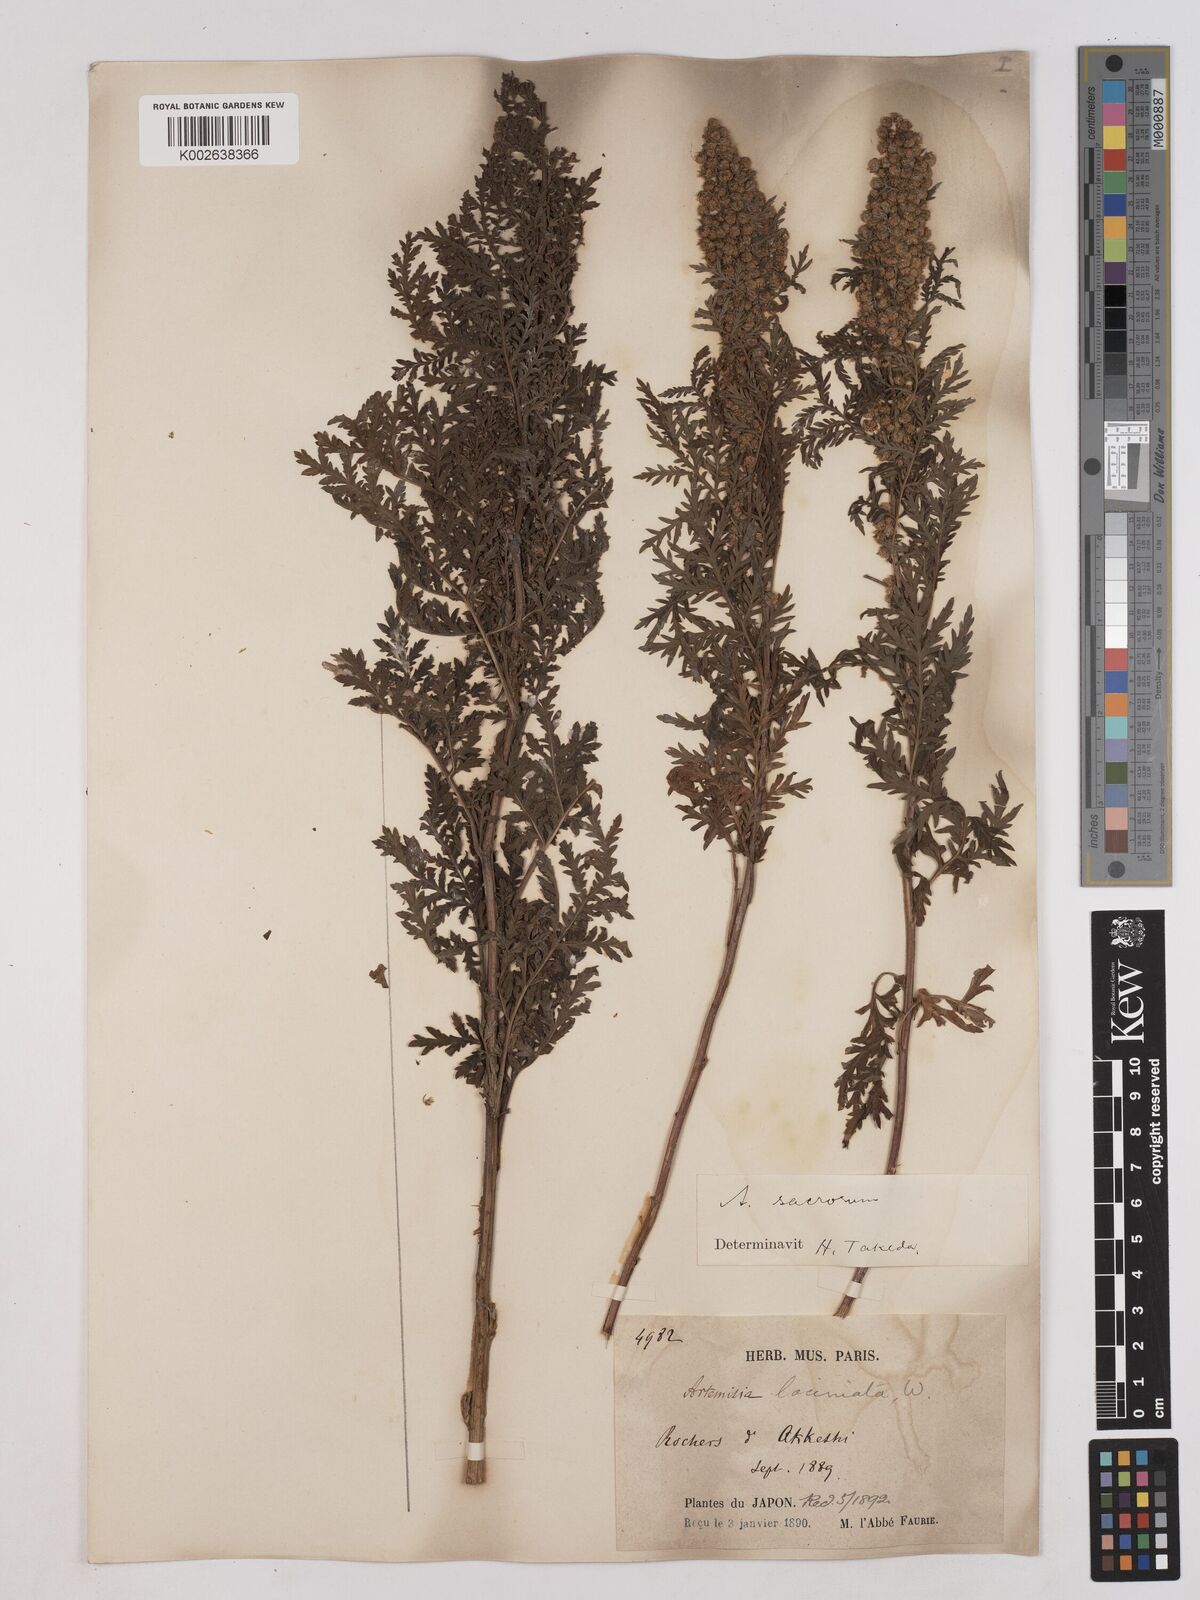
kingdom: Plantae
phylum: Tracheophyta
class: Magnoliopsida
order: Asterales
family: Asteraceae
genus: Artemisia
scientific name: Artemisia gmelinii
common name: Gmelin's wormwood
